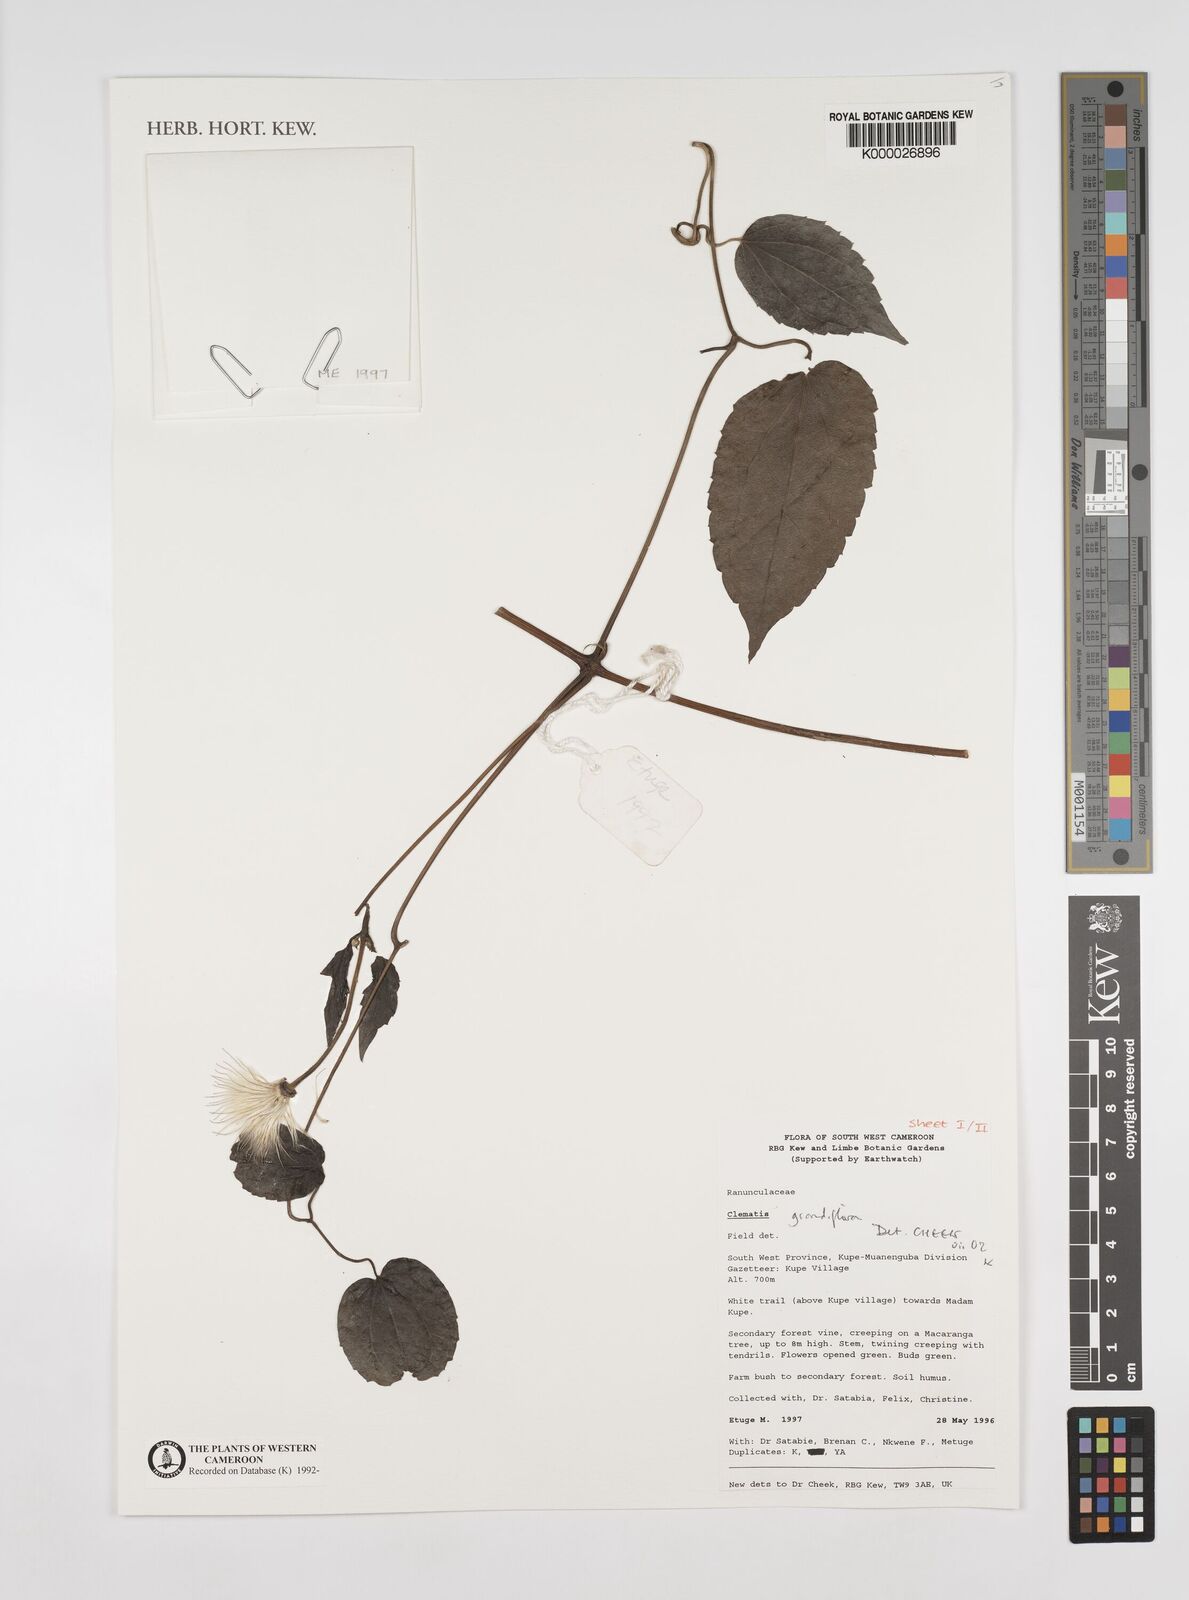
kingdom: Plantae
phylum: Tracheophyta
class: Magnoliopsida
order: Ranunculales
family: Ranunculaceae
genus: Clematis
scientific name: Clematis grandiflora
